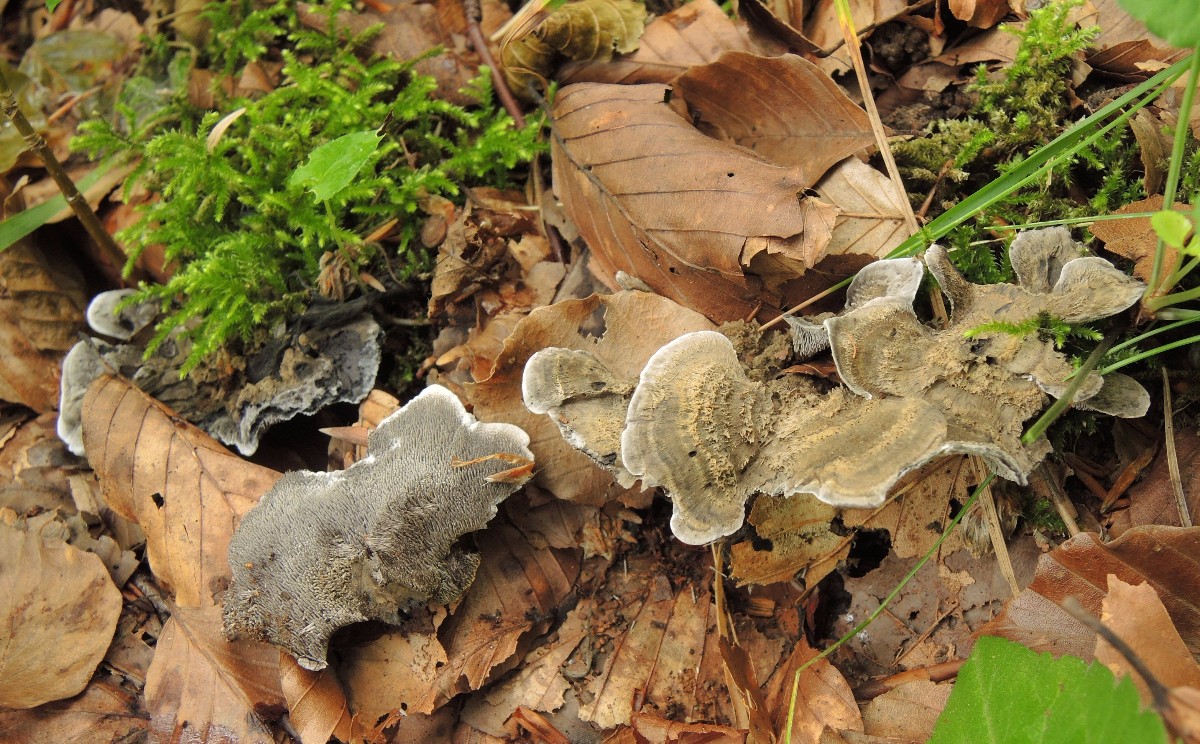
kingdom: Fungi
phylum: Basidiomycota
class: Agaricomycetes
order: Thelephorales
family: Thelephoraceae
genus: Phellodon
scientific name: Phellodon niger
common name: Black tooth
